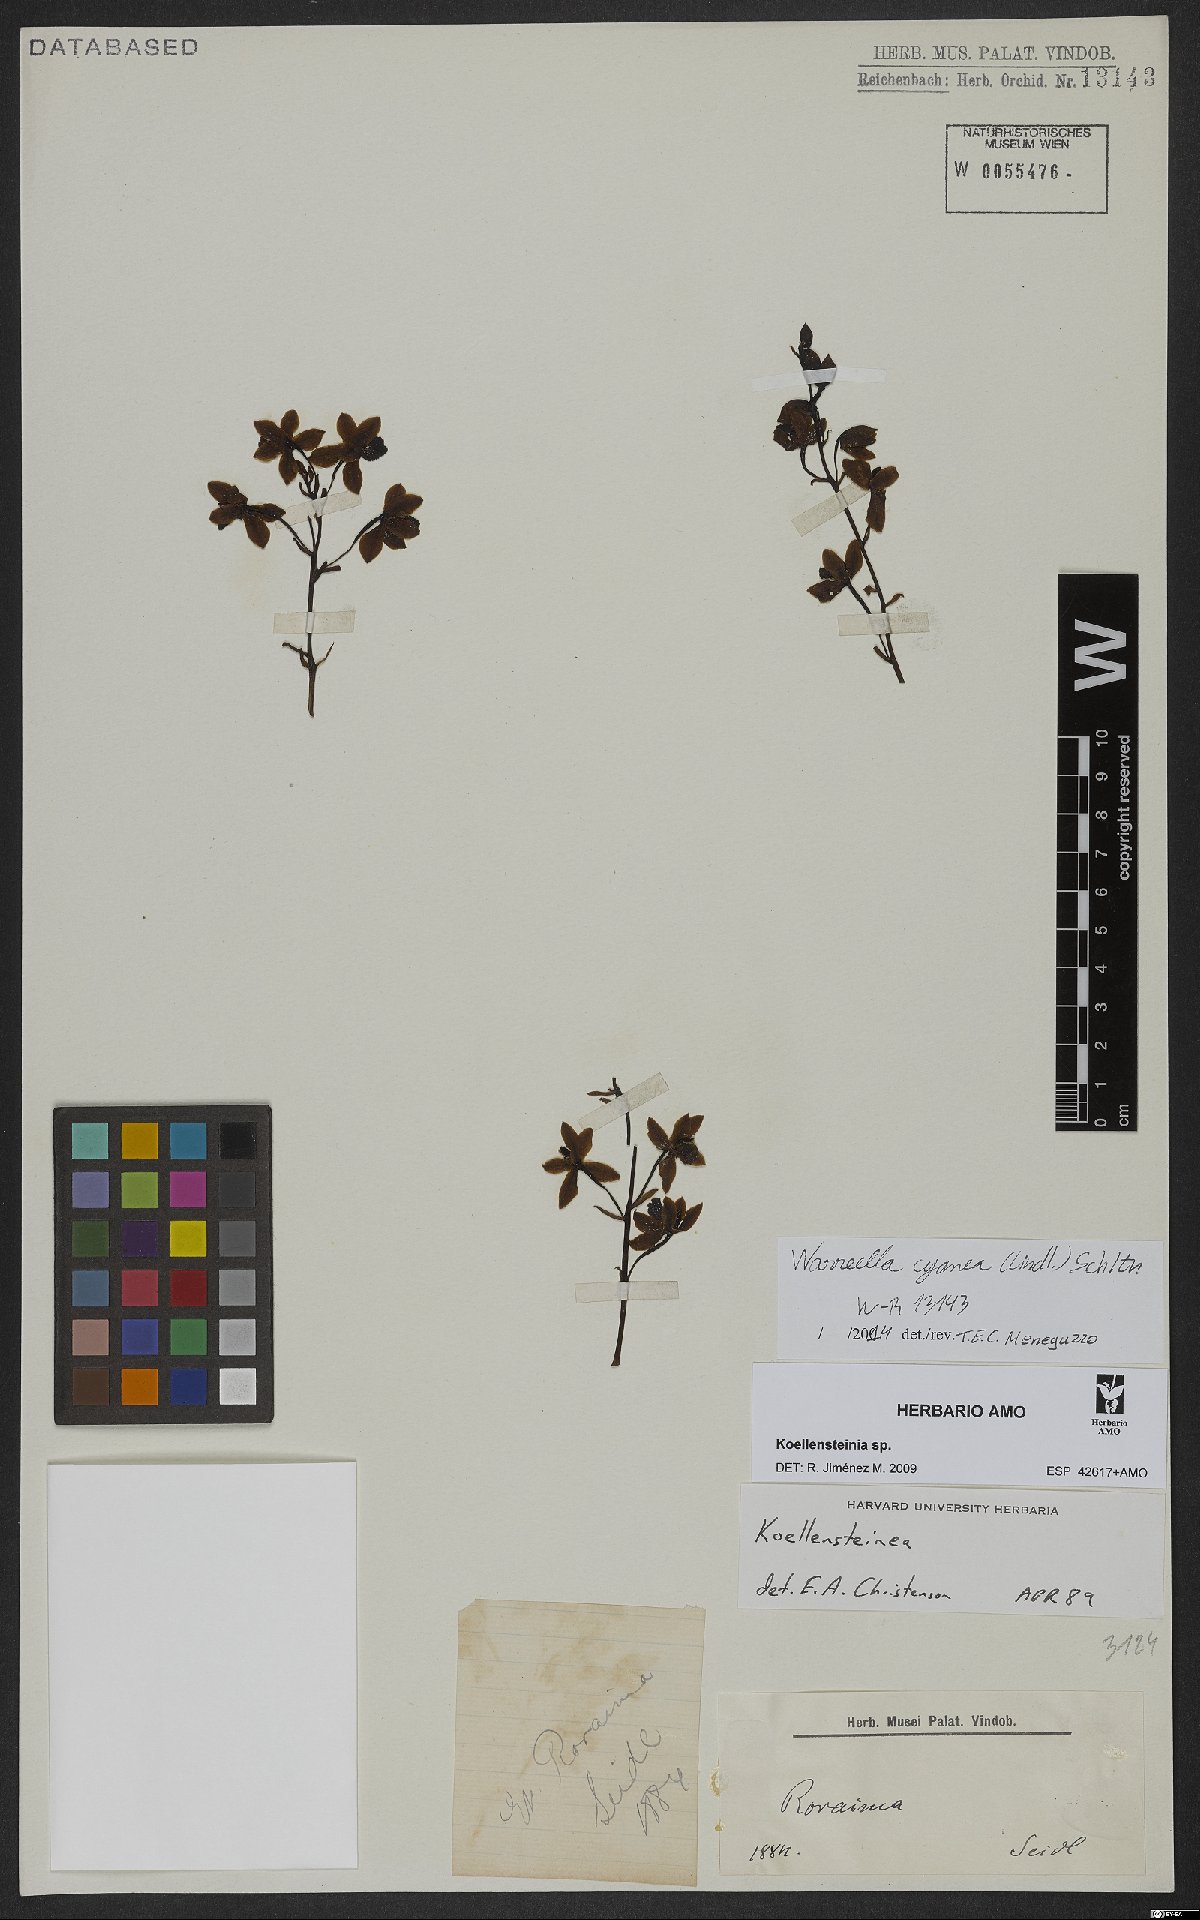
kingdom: Plantae
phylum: Tracheophyta
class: Liliopsida
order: Asparagales
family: Orchidaceae
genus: Warreella
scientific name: Warreella cyanea
